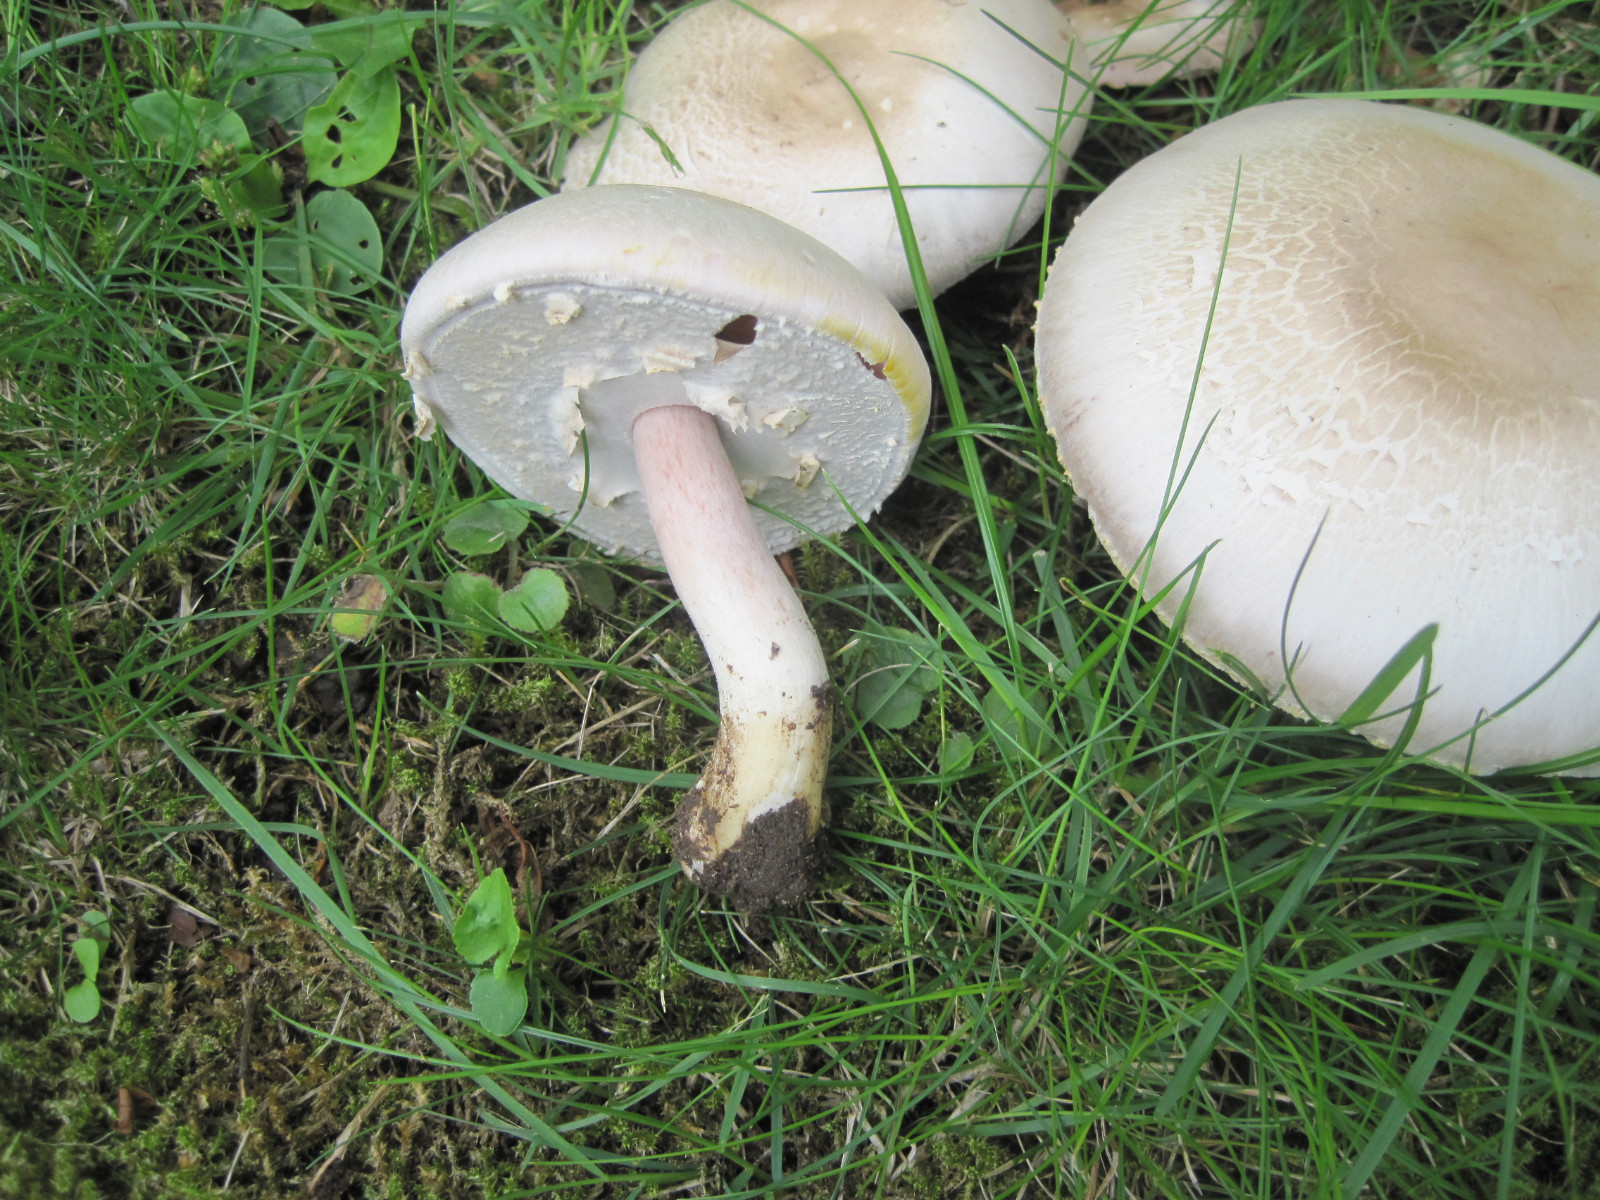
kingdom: Fungi
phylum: Basidiomycota
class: Agaricomycetes
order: Agaricales
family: Agaricaceae
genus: Agaricus
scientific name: Agaricus xanthodermus
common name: karbol-champignon
